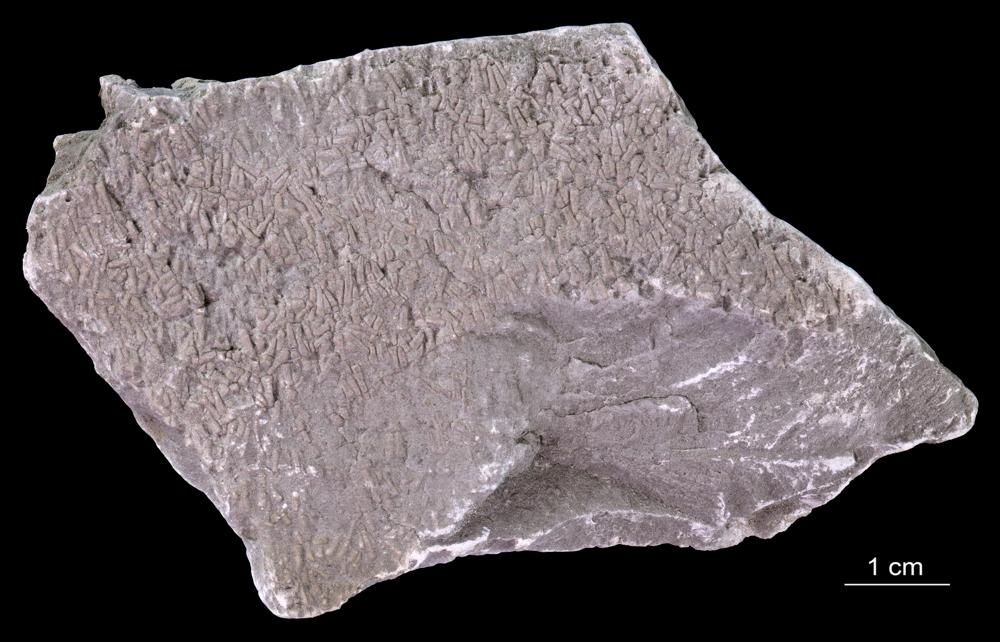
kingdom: Animalia
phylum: Annelida
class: Polychaeta
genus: Volborthella
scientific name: Volborthella tenuis
